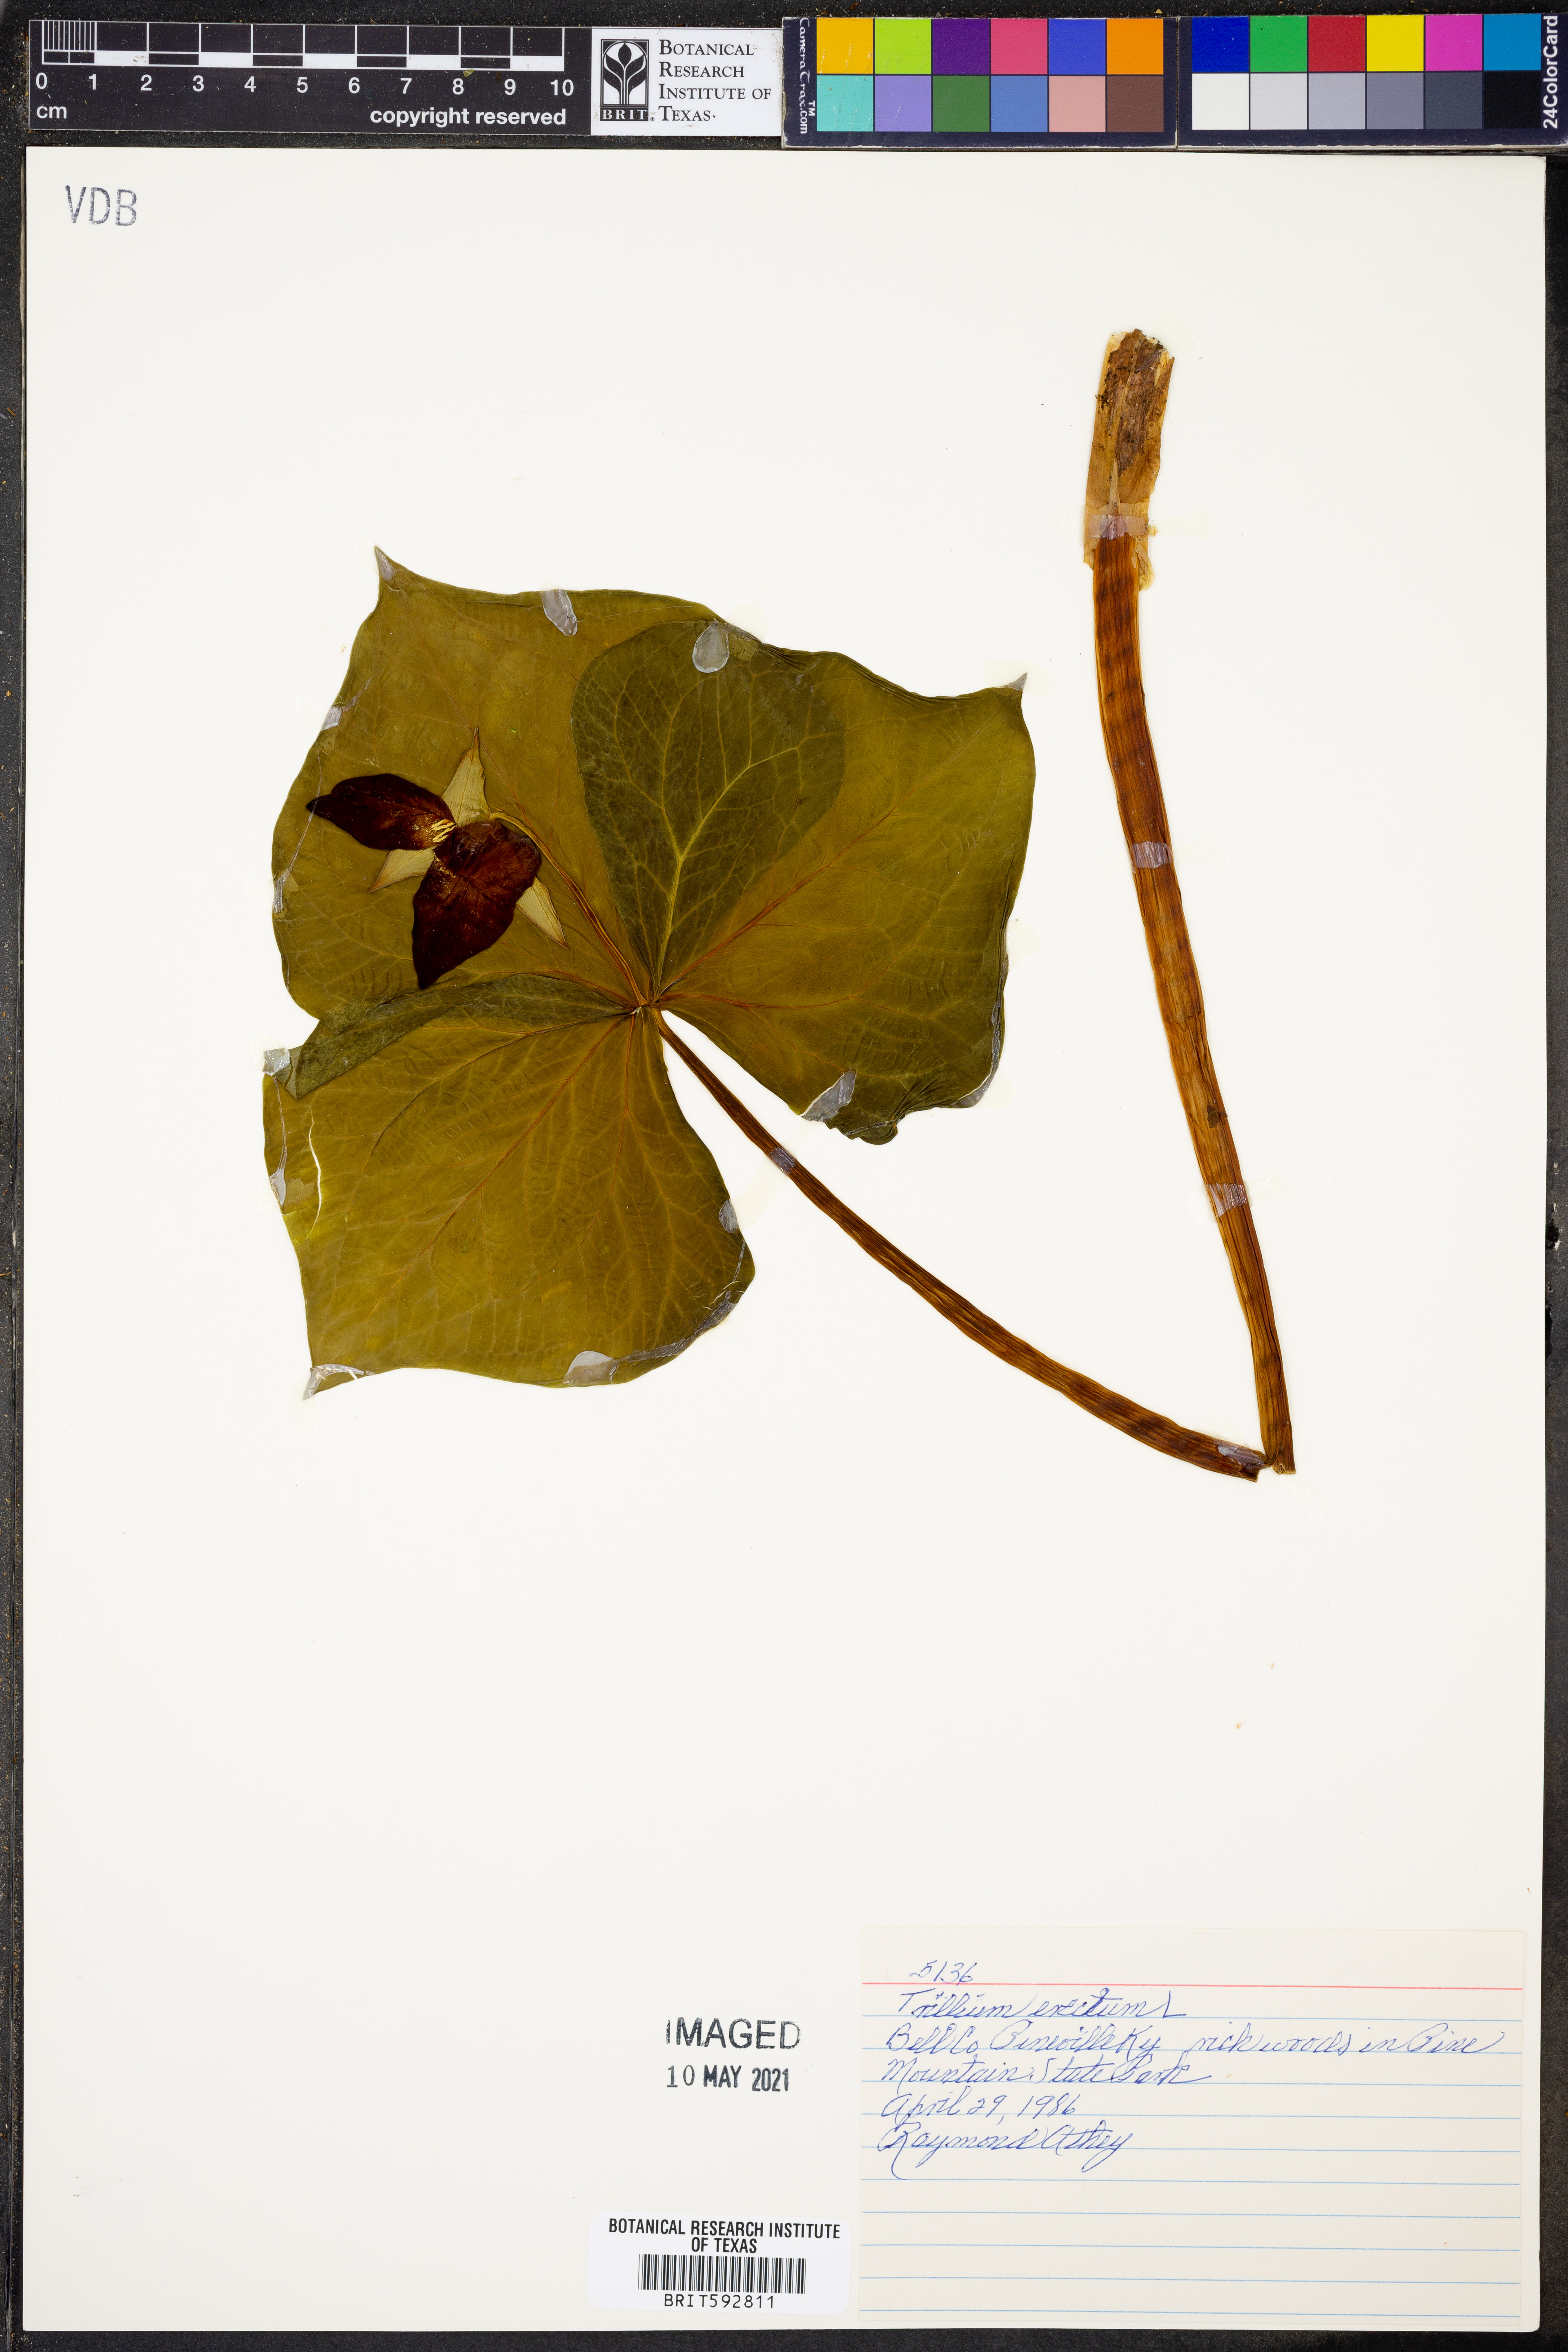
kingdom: Plantae
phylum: Tracheophyta
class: Liliopsida
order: Liliales
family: Melanthiaceae
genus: Trillium
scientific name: Trillium erectum
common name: Purple trillium
